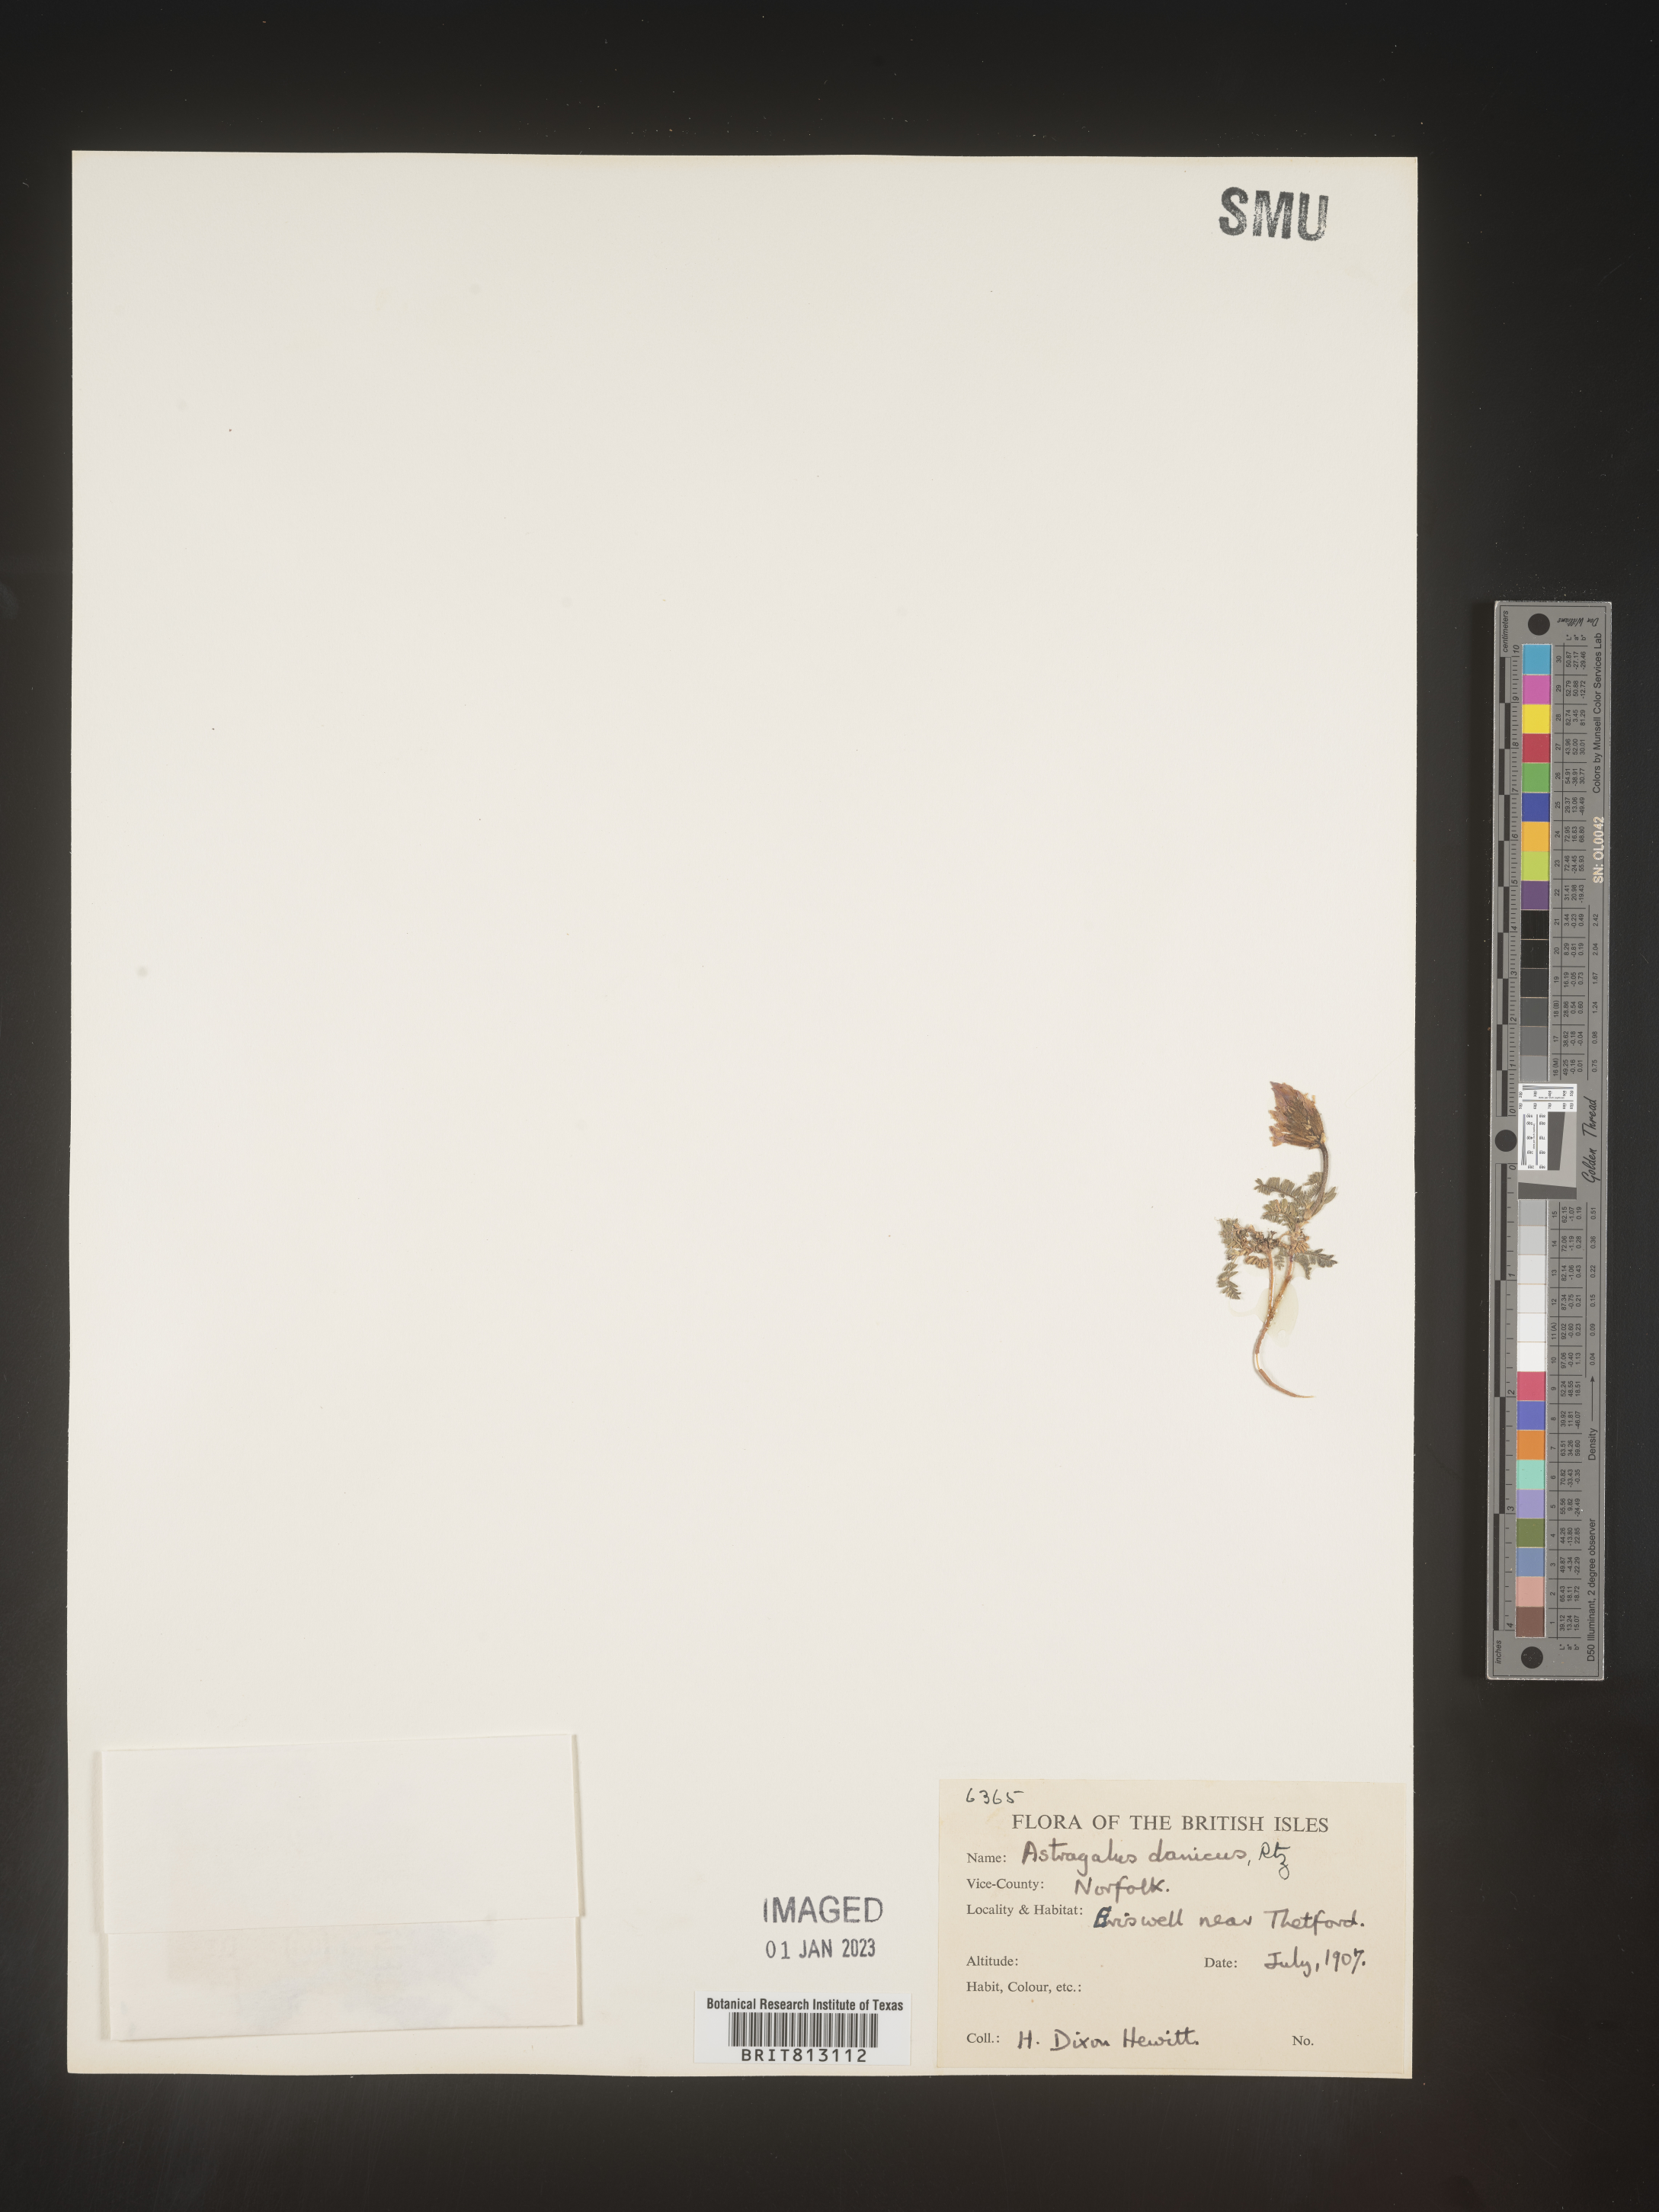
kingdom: Plantae
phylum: Tracheophyta
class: Magnoliopsida
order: Fabales
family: Fabaceae
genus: Astragalus
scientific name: Astragalus
